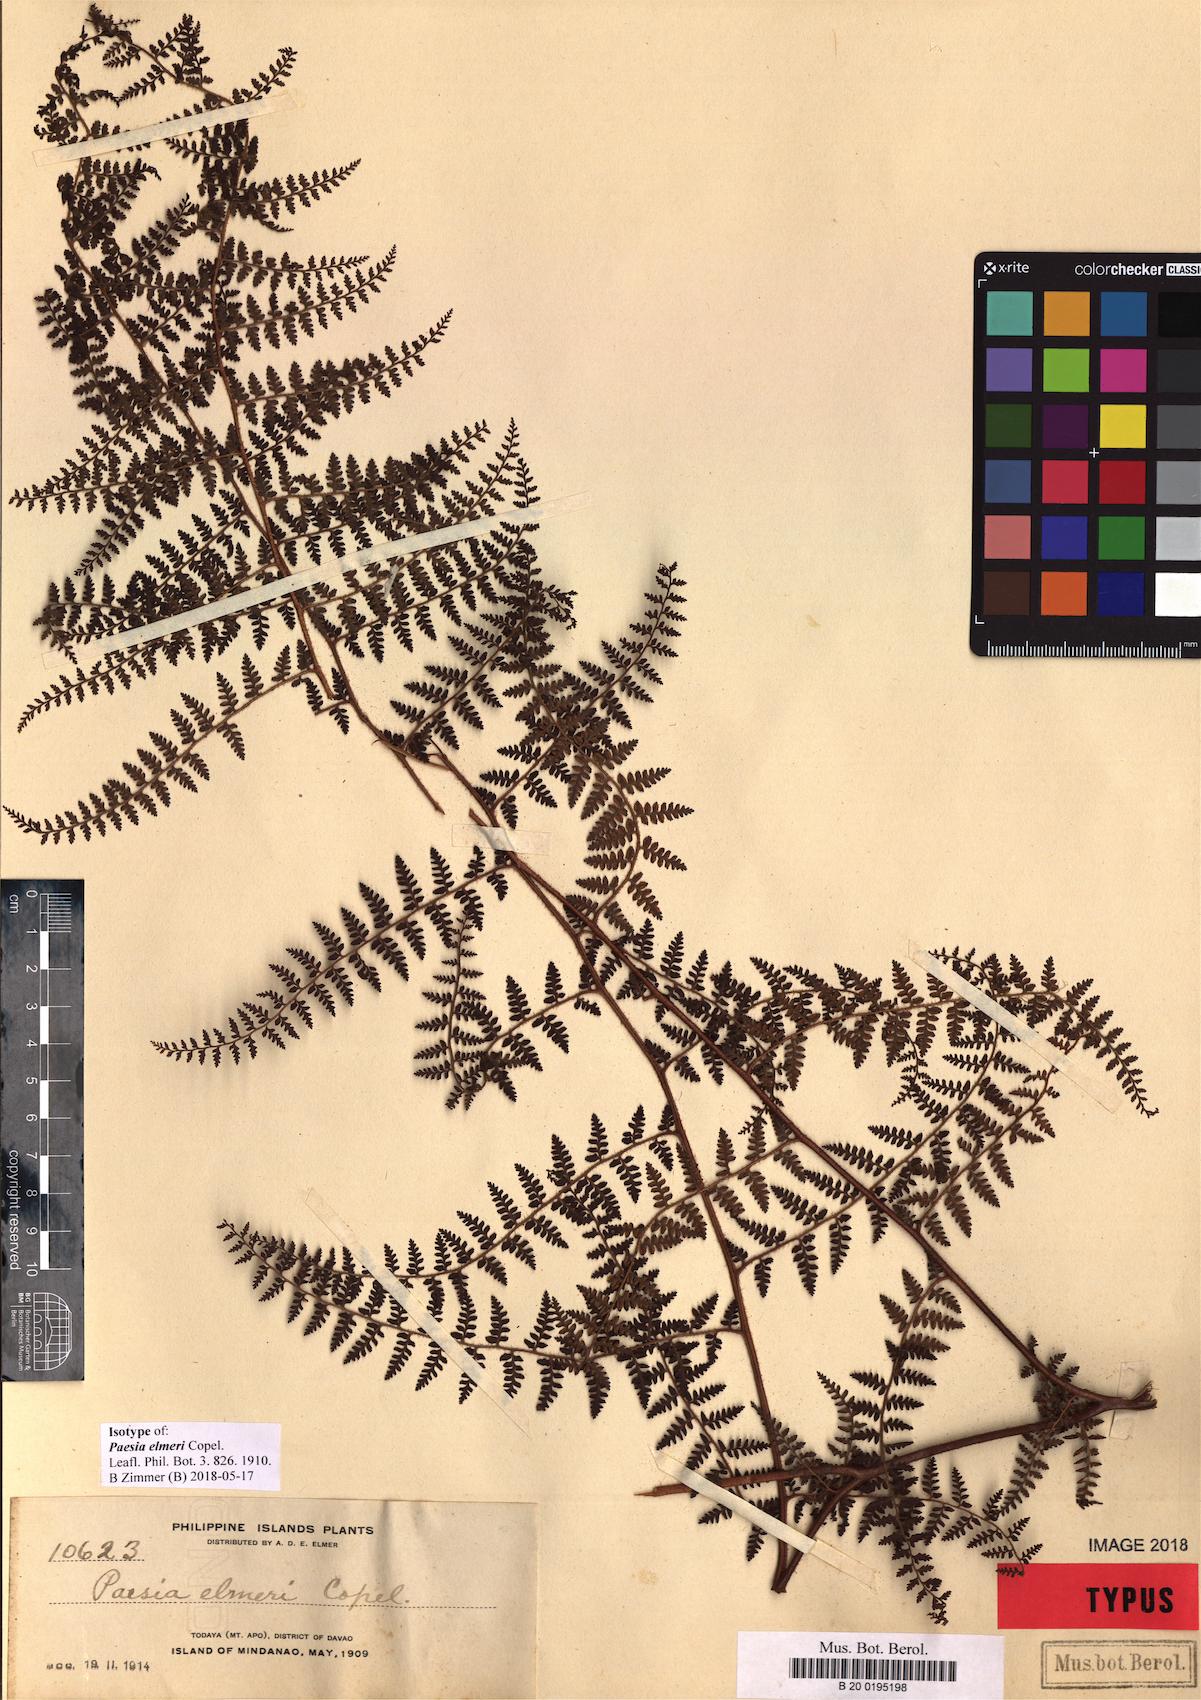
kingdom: Plantae
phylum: Tracheophyta
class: Polypodiopsida
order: Polypodiales
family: Dennstaedtiaceae
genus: Paesia
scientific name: Paesia elmeri
